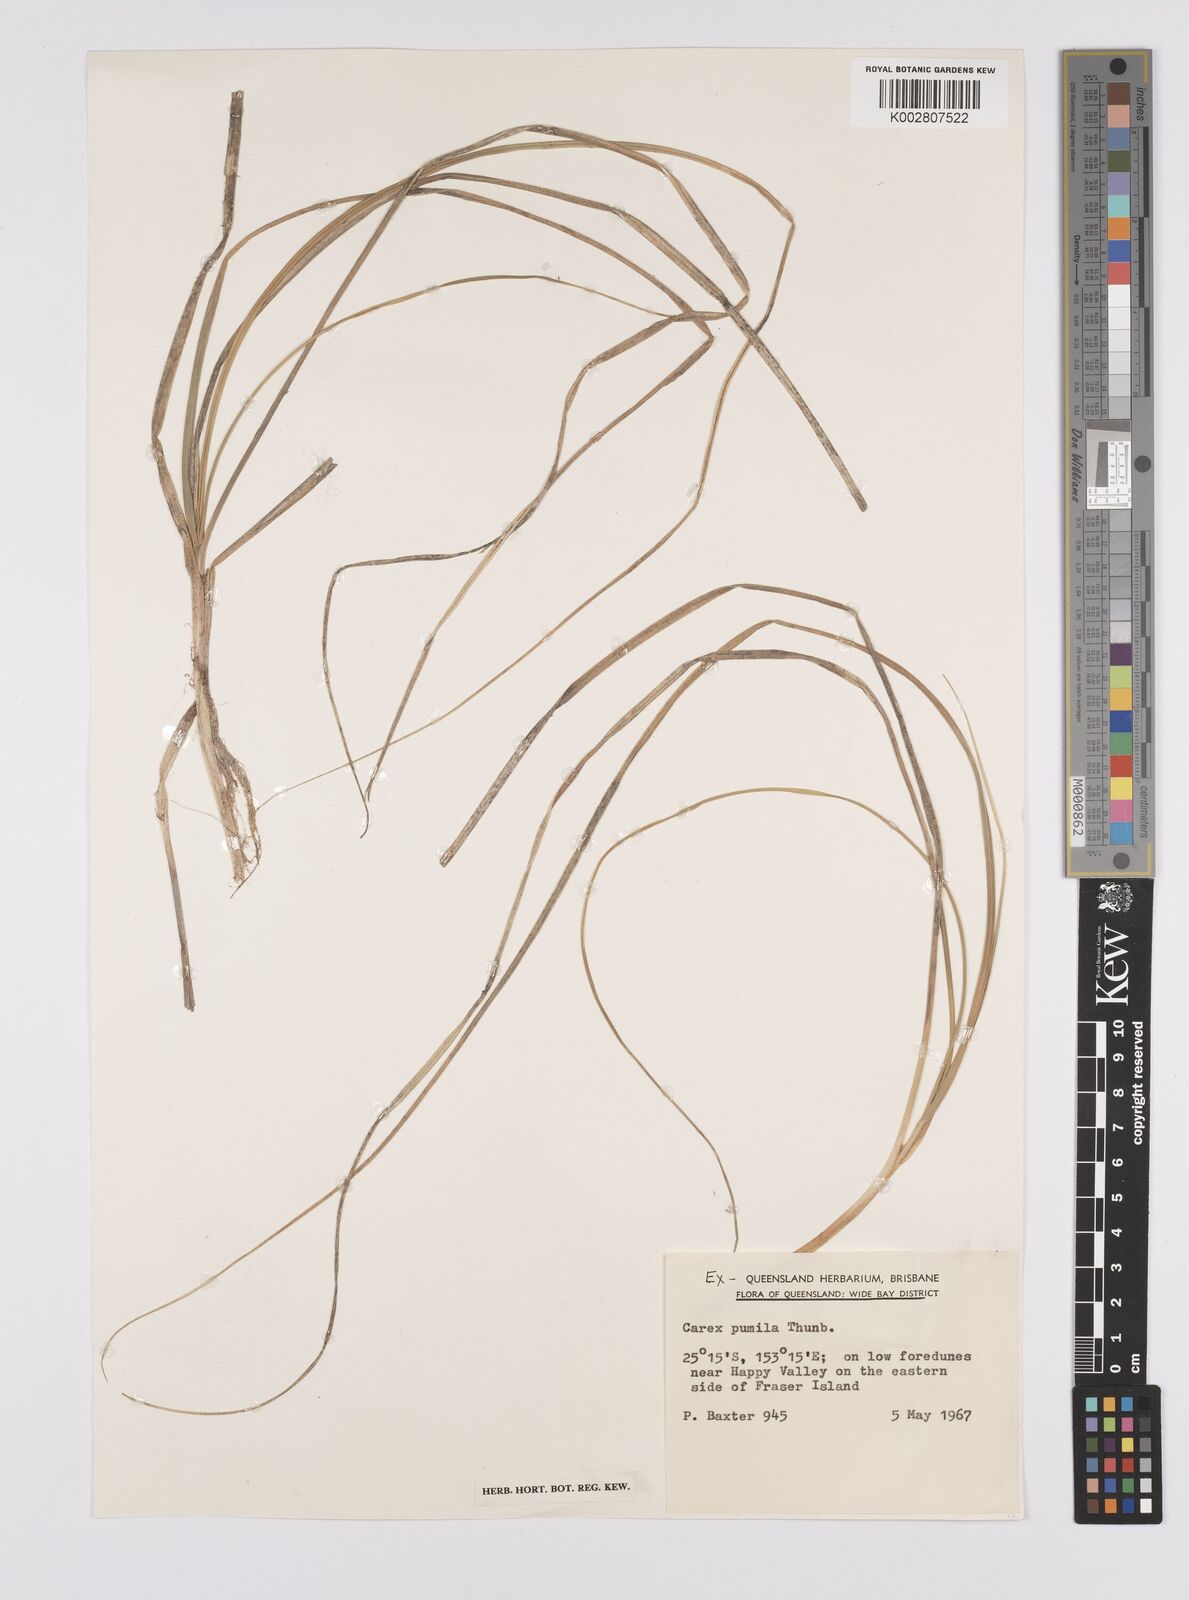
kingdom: Plantae
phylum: Tracheophyta
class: Liliopsida
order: Poales
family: Cyperaceae
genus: Carex
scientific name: Carex pumila
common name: Dwarf sedge
